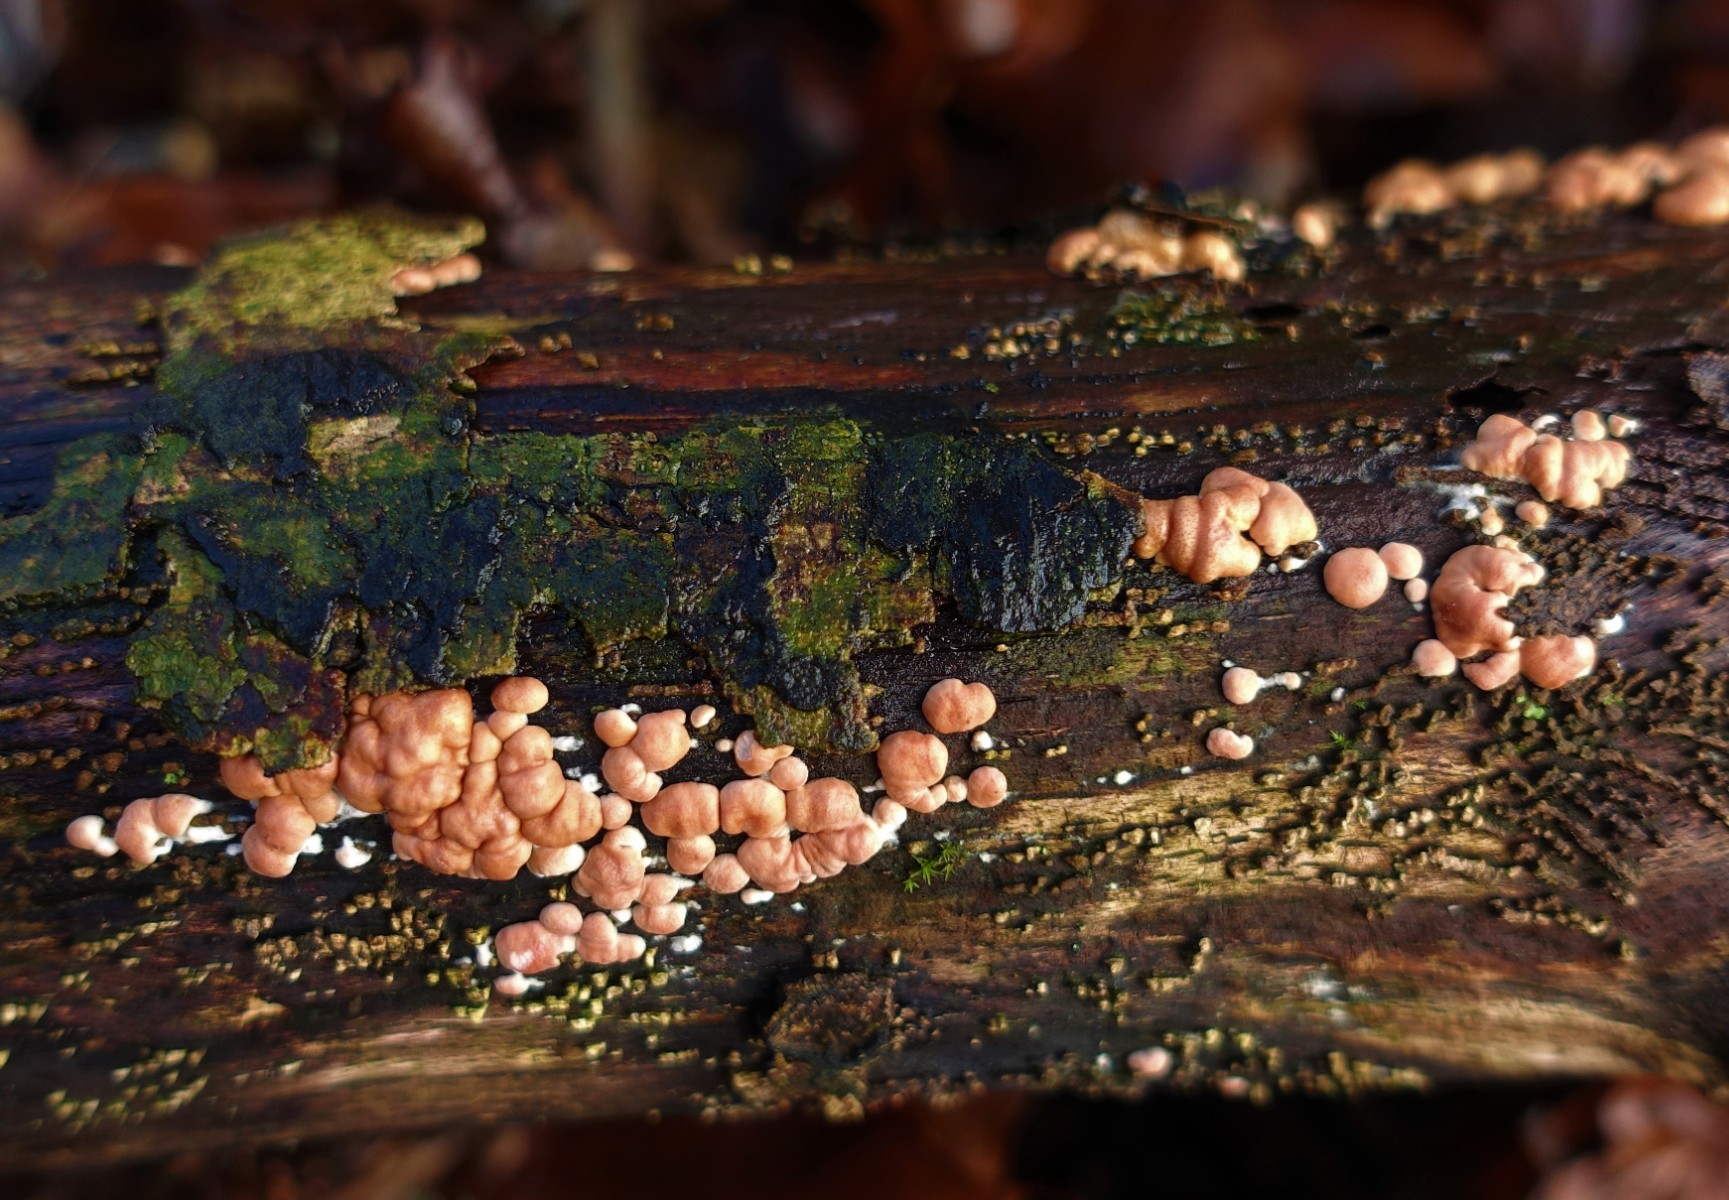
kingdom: Fungi
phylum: Ascomycota
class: Sordariomycetes
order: Hypocreales
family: Hypocreaceae
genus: Trichoderma
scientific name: Trichoderma europaeum
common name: rosabrun kødkerne
